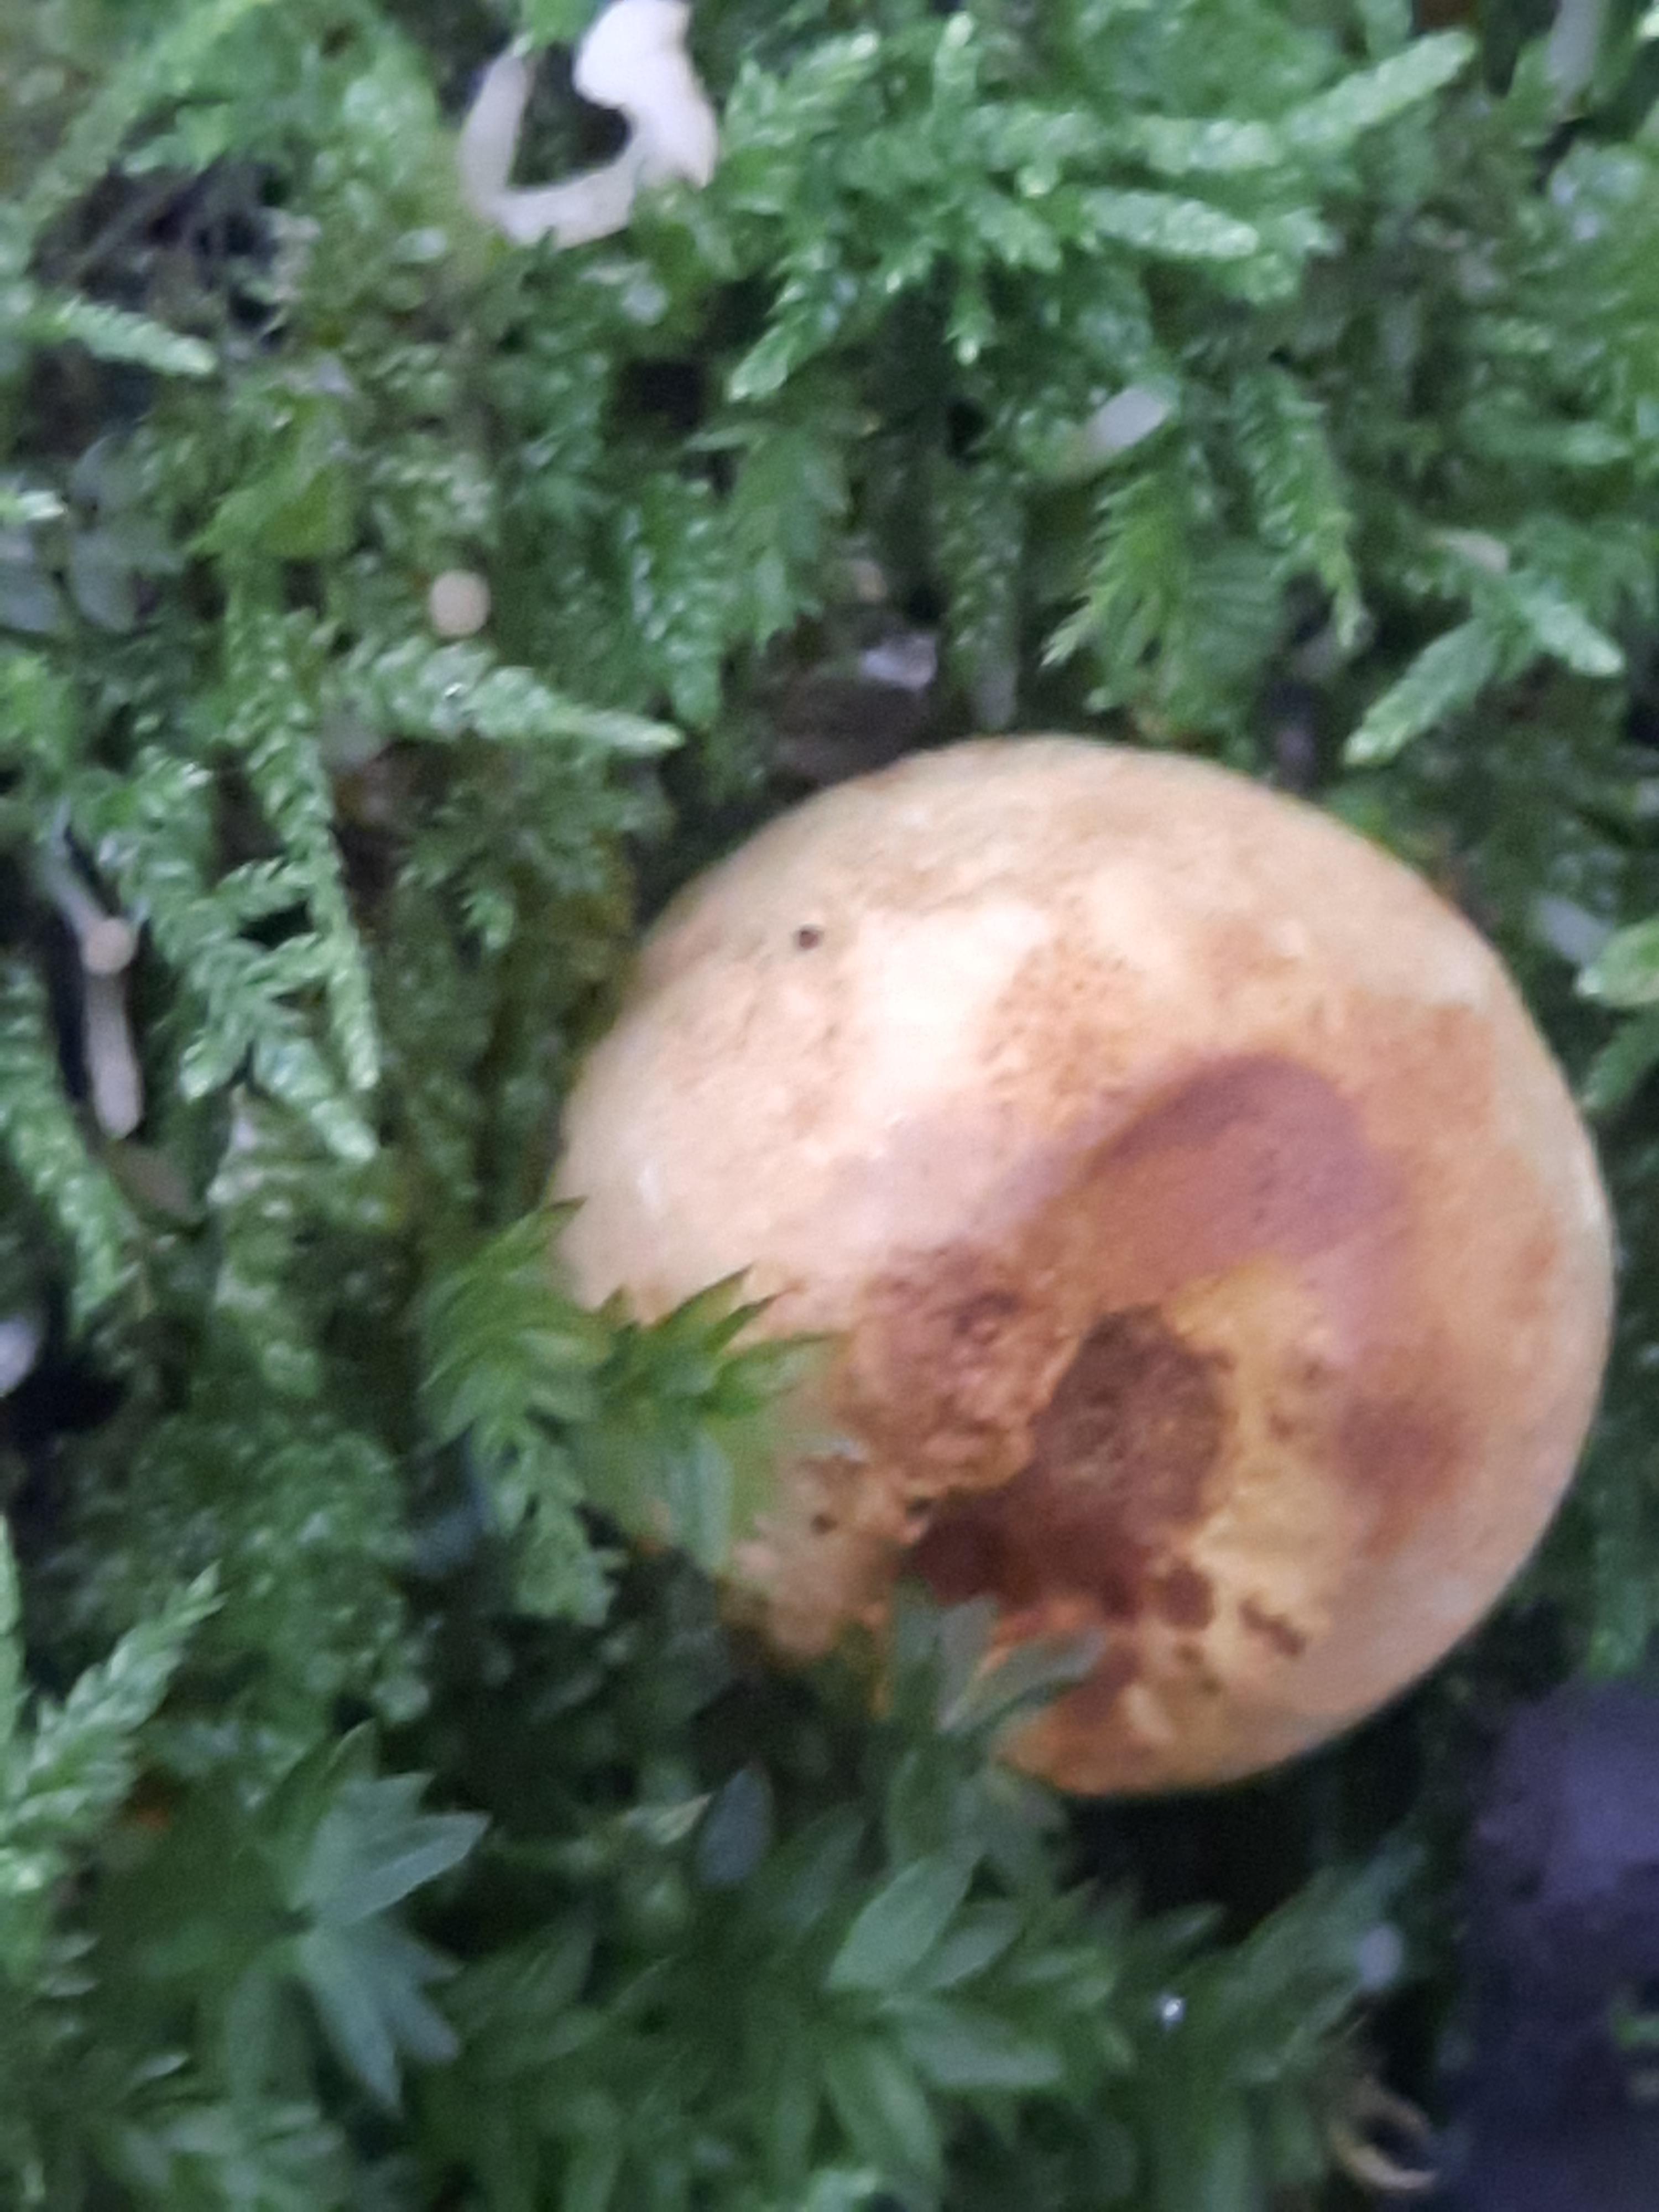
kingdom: Fungi
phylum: Basidiomycota
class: Agaricomycetes
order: Boletales
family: Sclerodermataceae
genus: Scleroderma
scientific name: Scleroderma citrinum
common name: almindelig bruskbold
